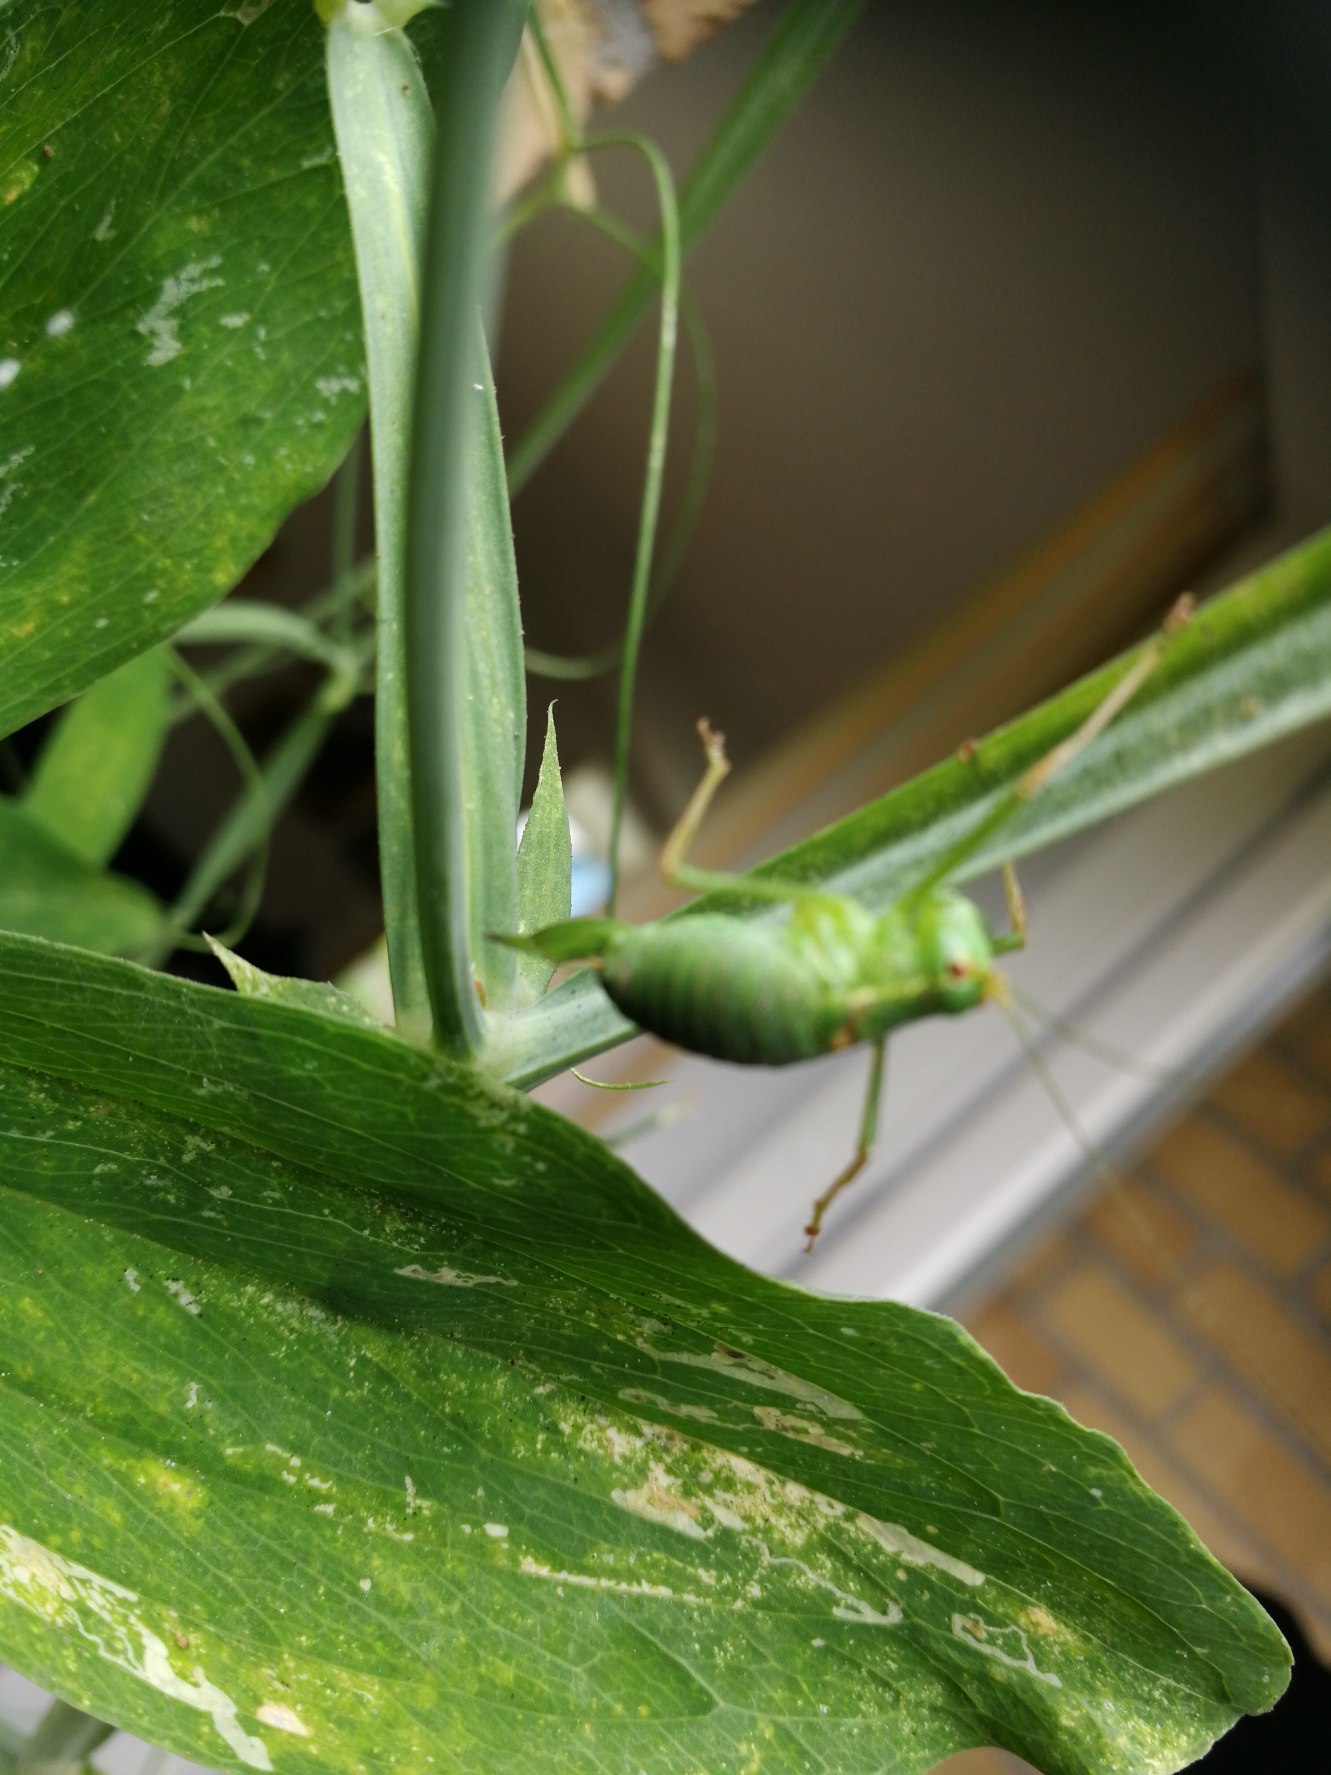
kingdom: Animalia
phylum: Arthropoda
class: Insecta
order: Orthoptera
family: Tettigoniidae
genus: Leptophyes
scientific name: Leptophyes punctatissima
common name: Krumknivgræshoppe
